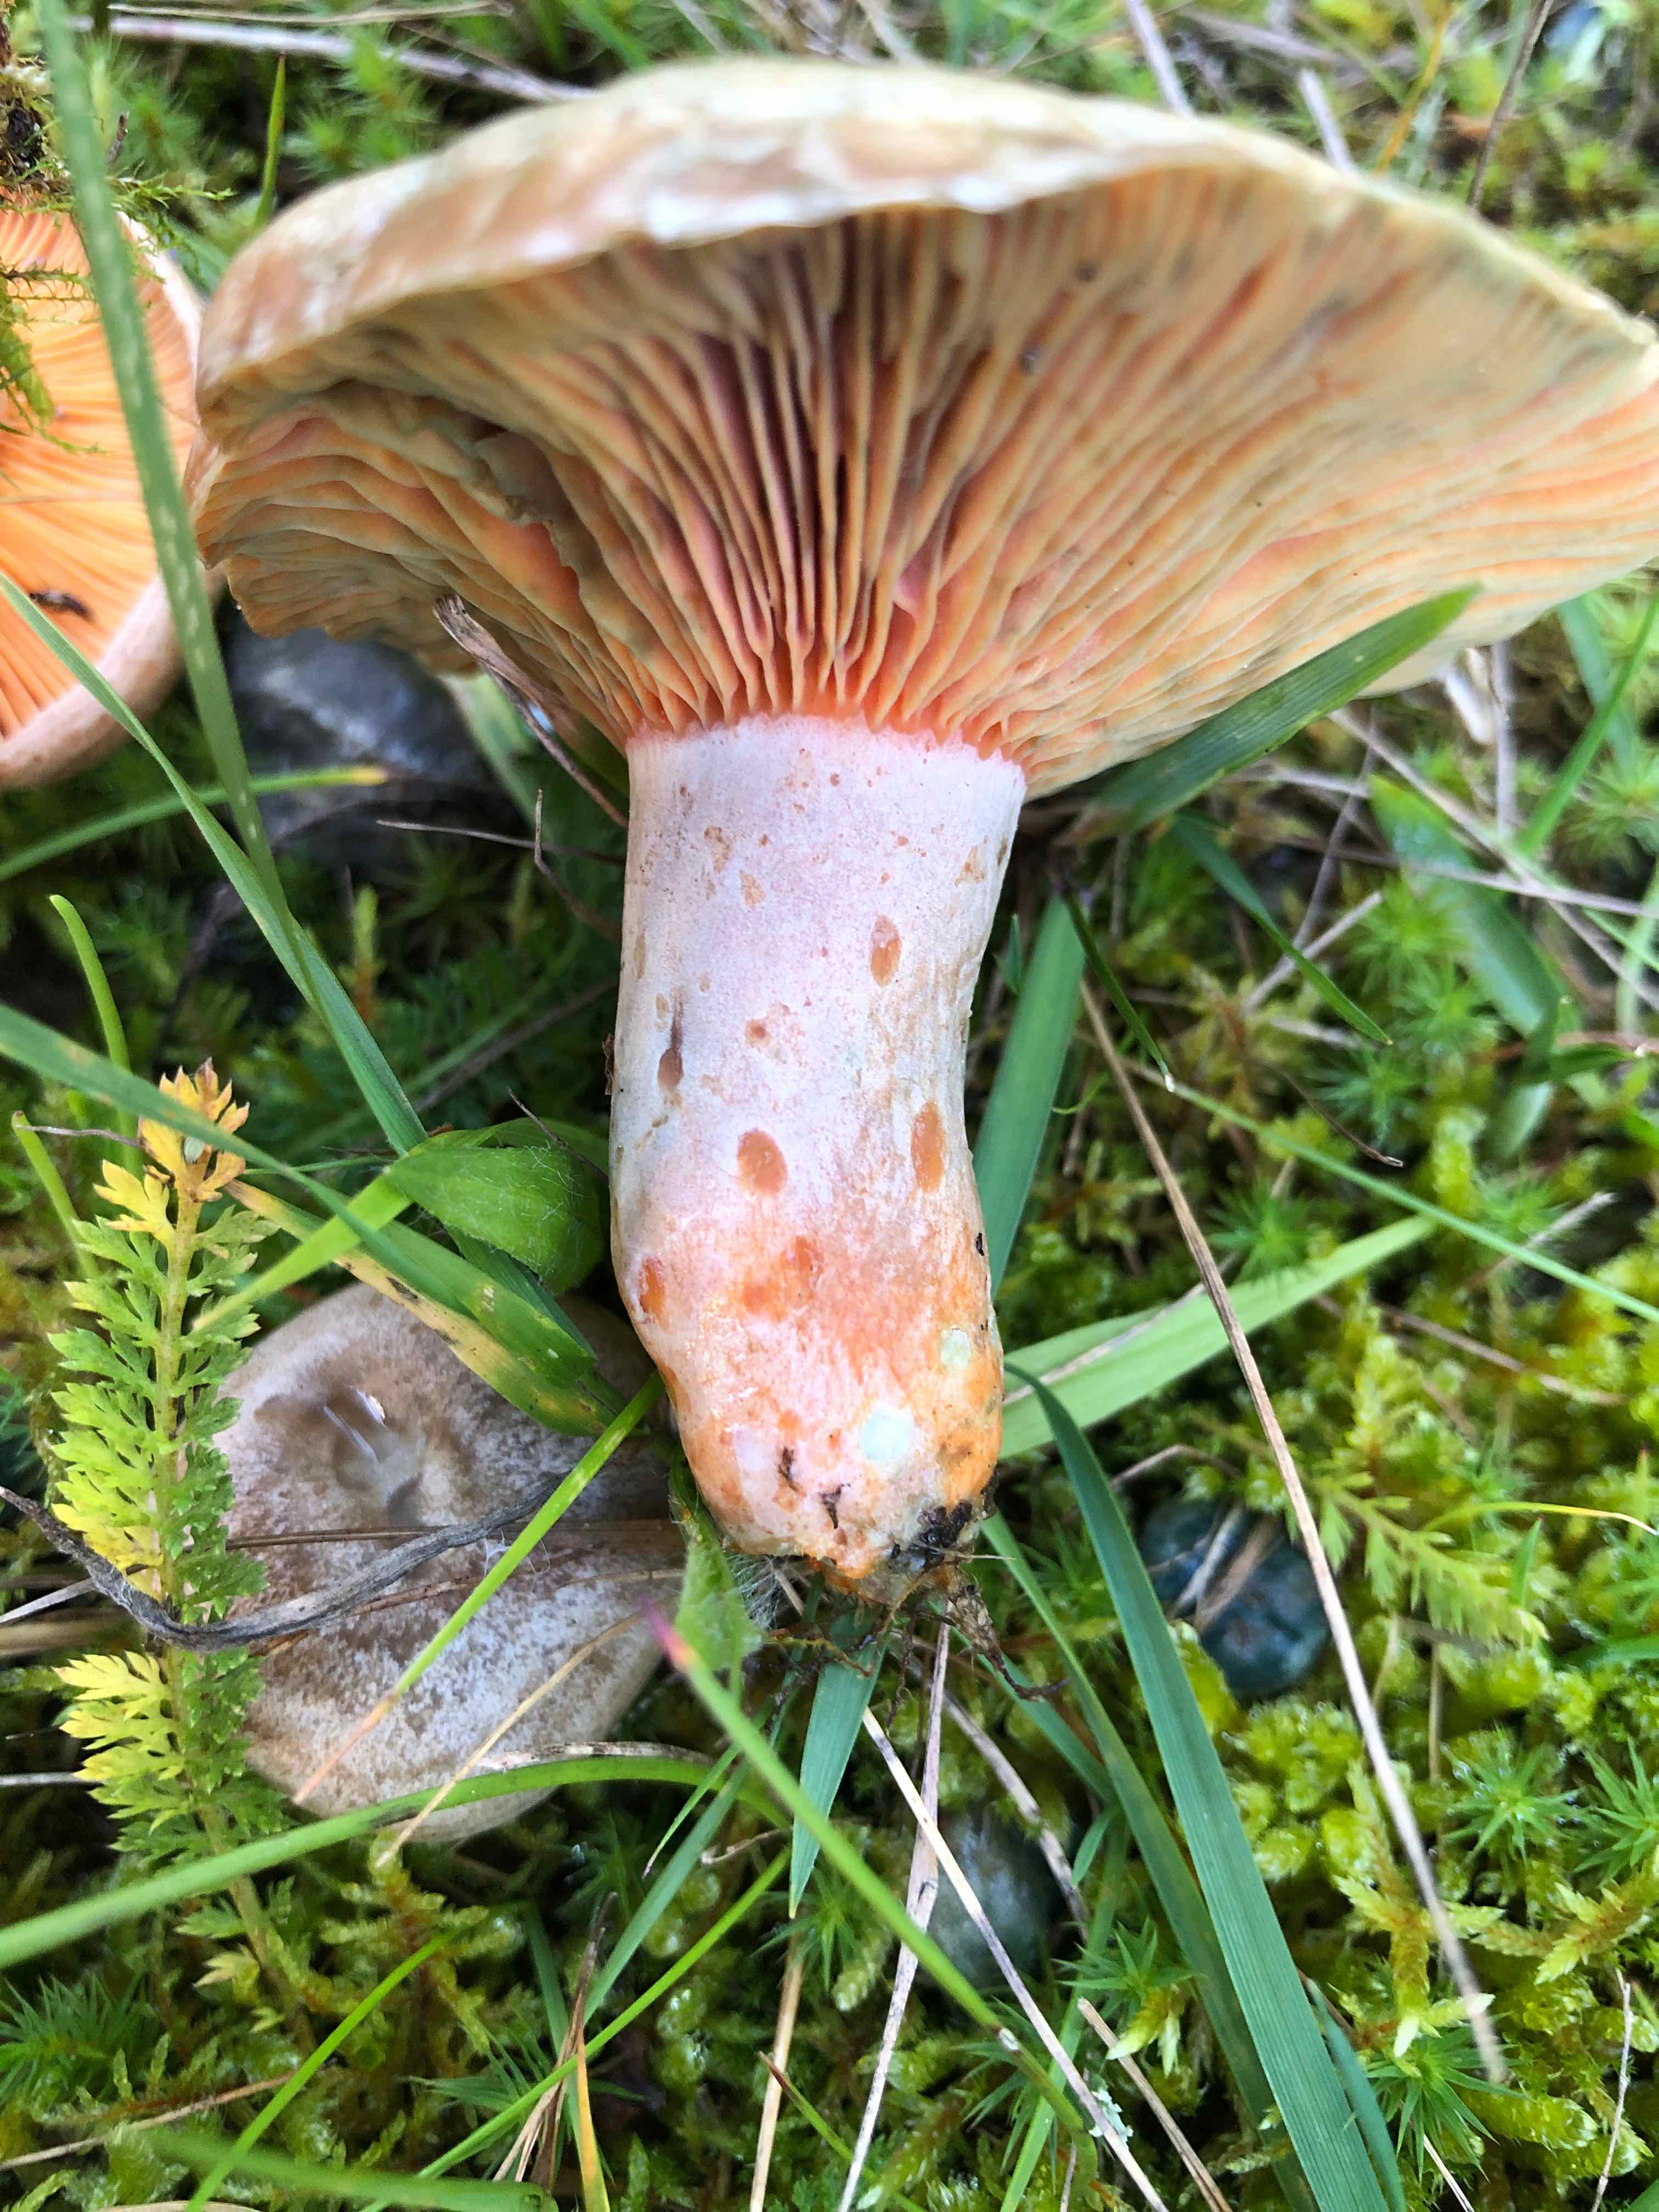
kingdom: Fungi
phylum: Basidiomycota
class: Agaricomycetes
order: Russulales
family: Russulaceae
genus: Lactarius
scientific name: Lactarius deliciosus
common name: velsmagende mælkehat
